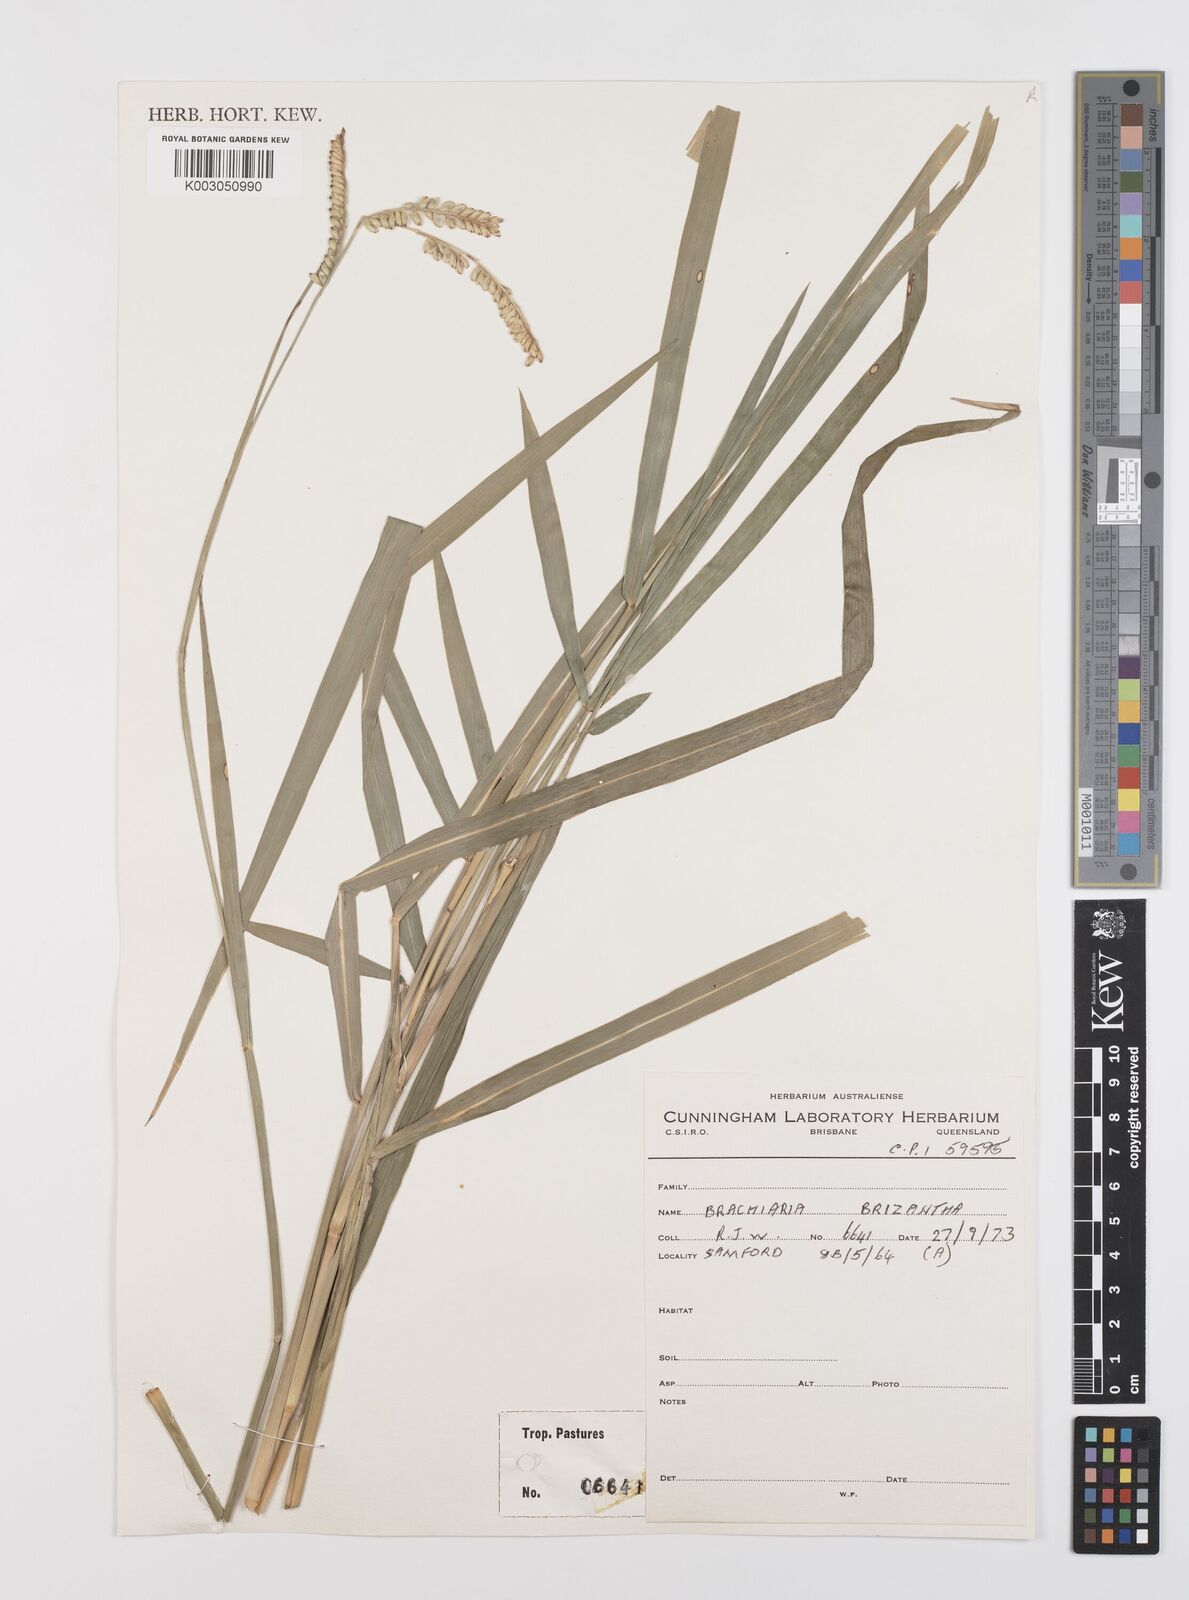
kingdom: Plantae
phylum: Tracheophyta
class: Liliopsida
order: Poales
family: Poaceae
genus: Urochloa
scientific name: Urochloa brizantha
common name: Palisade signalgrass
